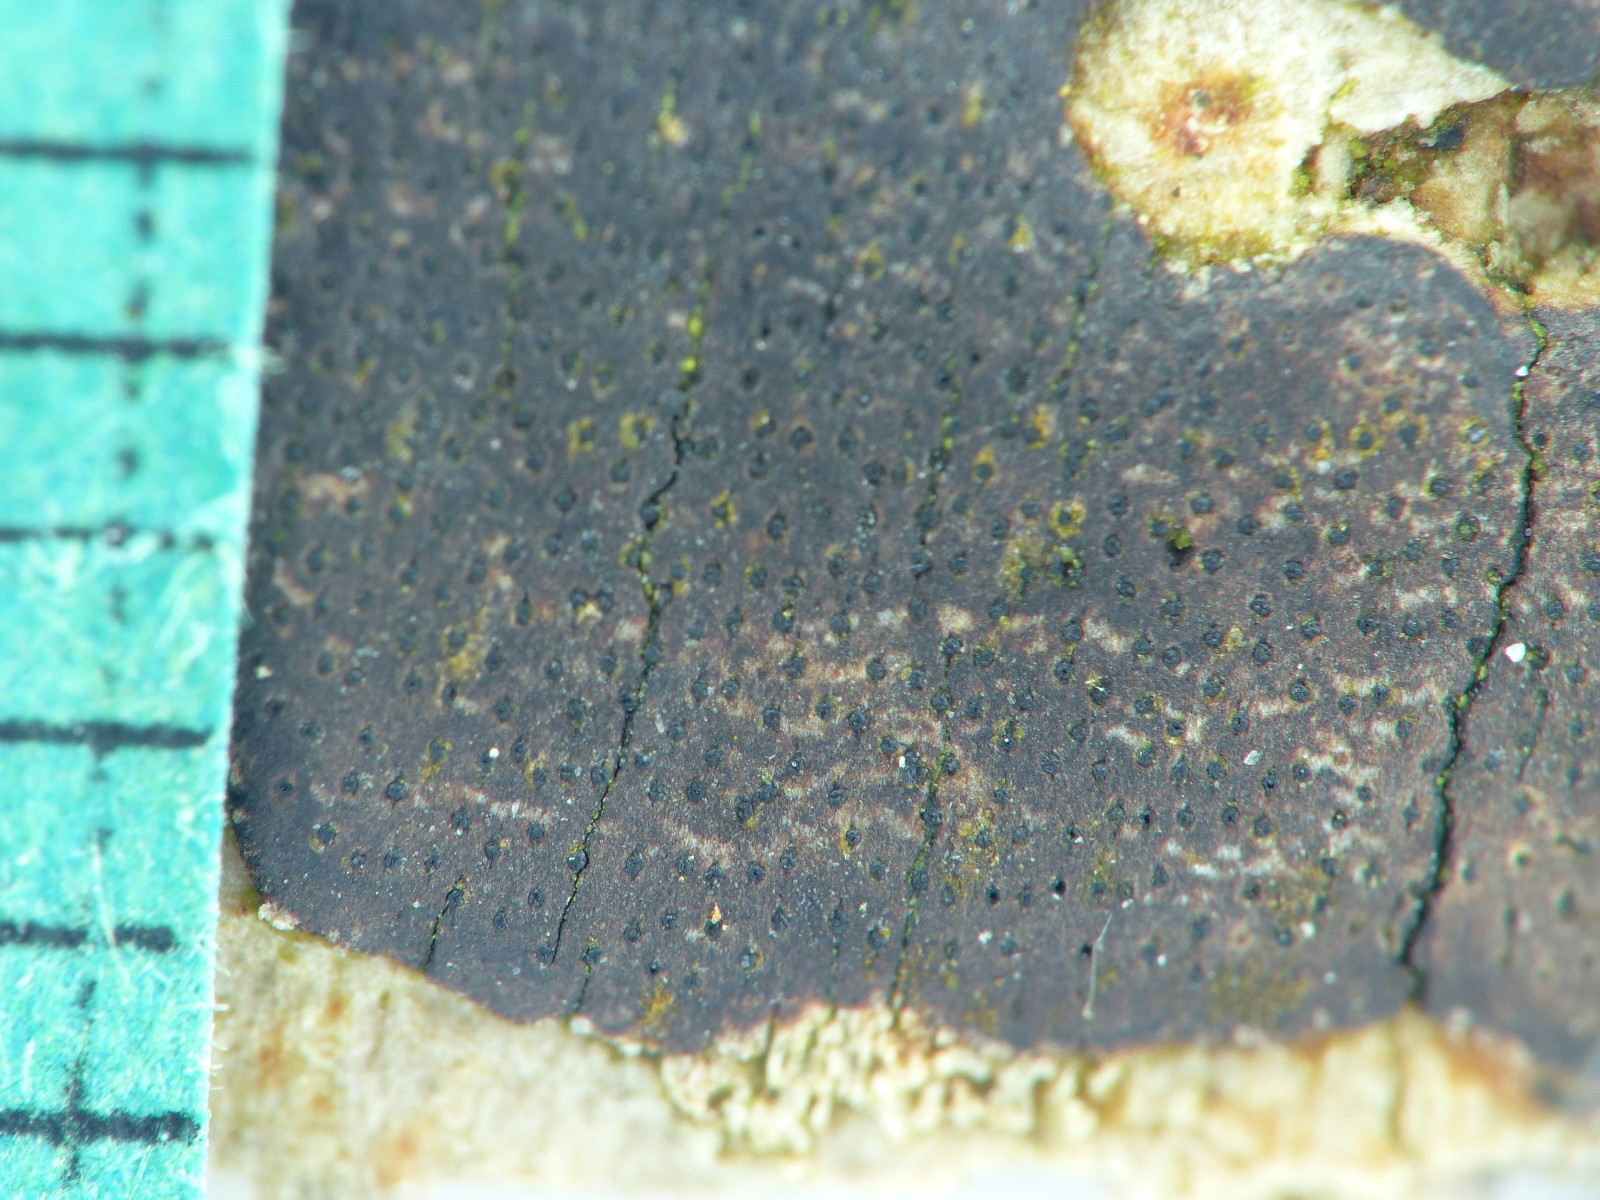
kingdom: Fungi
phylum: Ascomycota
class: Sordariomycetes
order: Xylariales
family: Diatrypaceae
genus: Diatrype
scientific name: Diatrype decorticata
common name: barksprænger-kulskorpe
